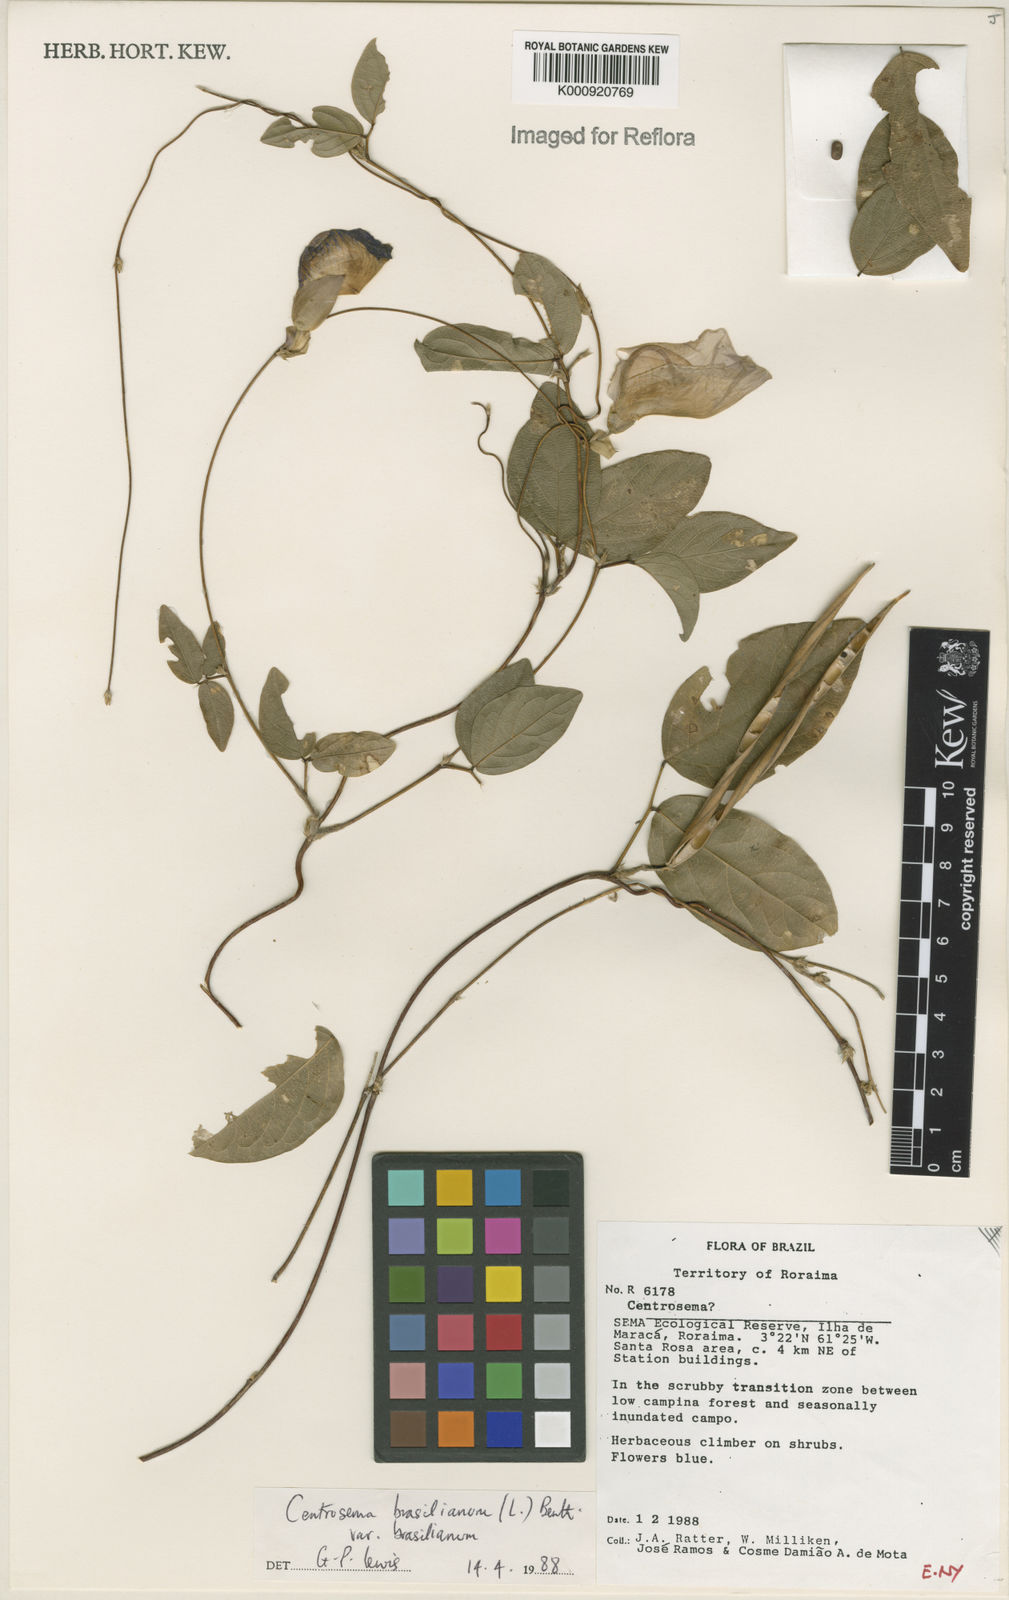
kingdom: Plantae
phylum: Tracheophyta
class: Magnoliopsida
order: Fabales
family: Fabaceae
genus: Centrosema
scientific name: Centrosema brasilianum
